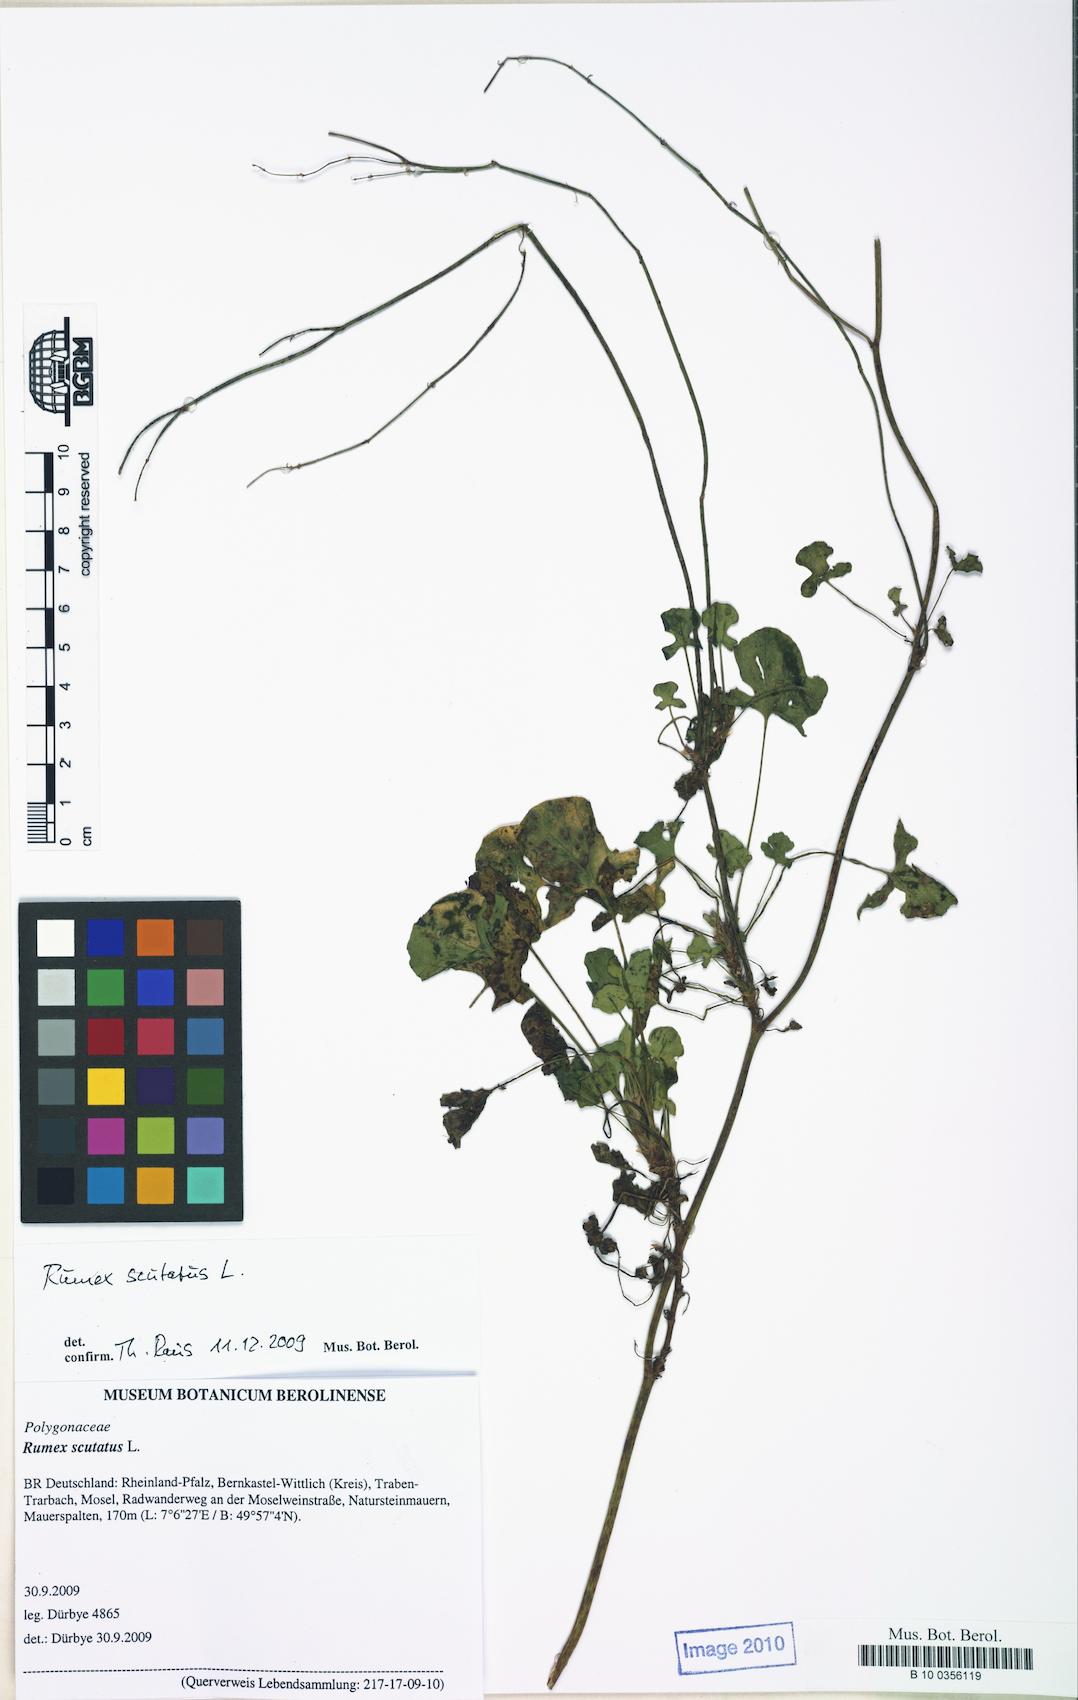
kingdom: Plantae
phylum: Tracheophyta
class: Magnoliopsida
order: Caryophyllales
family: Polygonaceae
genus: Rumex
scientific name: Rumex scutatus
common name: French sorrel
